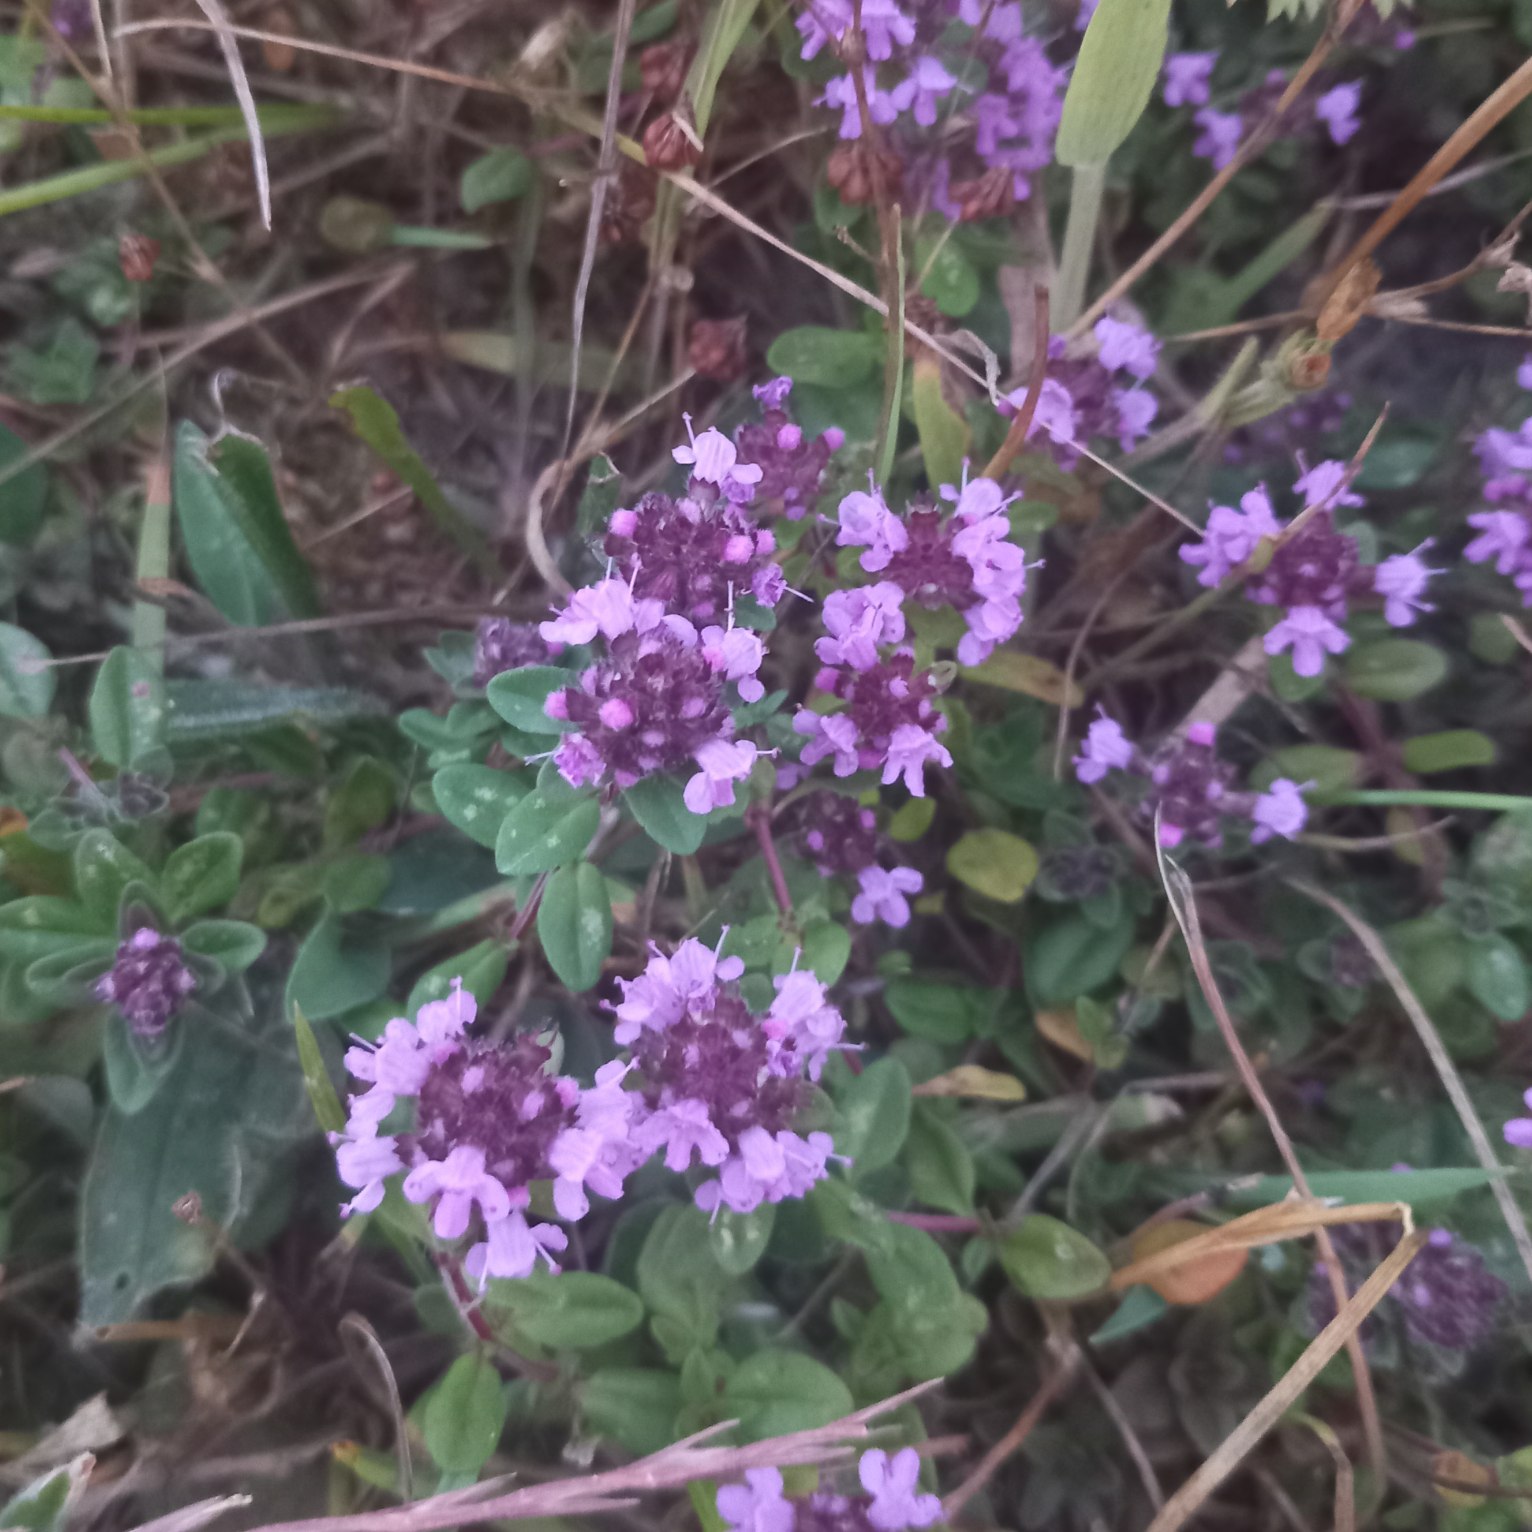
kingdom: Plantae
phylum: Tracheophyta
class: Magnoliopsida
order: Lamiales
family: Lamiaceae
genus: Thymus
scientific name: Thymus pulegioides
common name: Bredbladet timian
